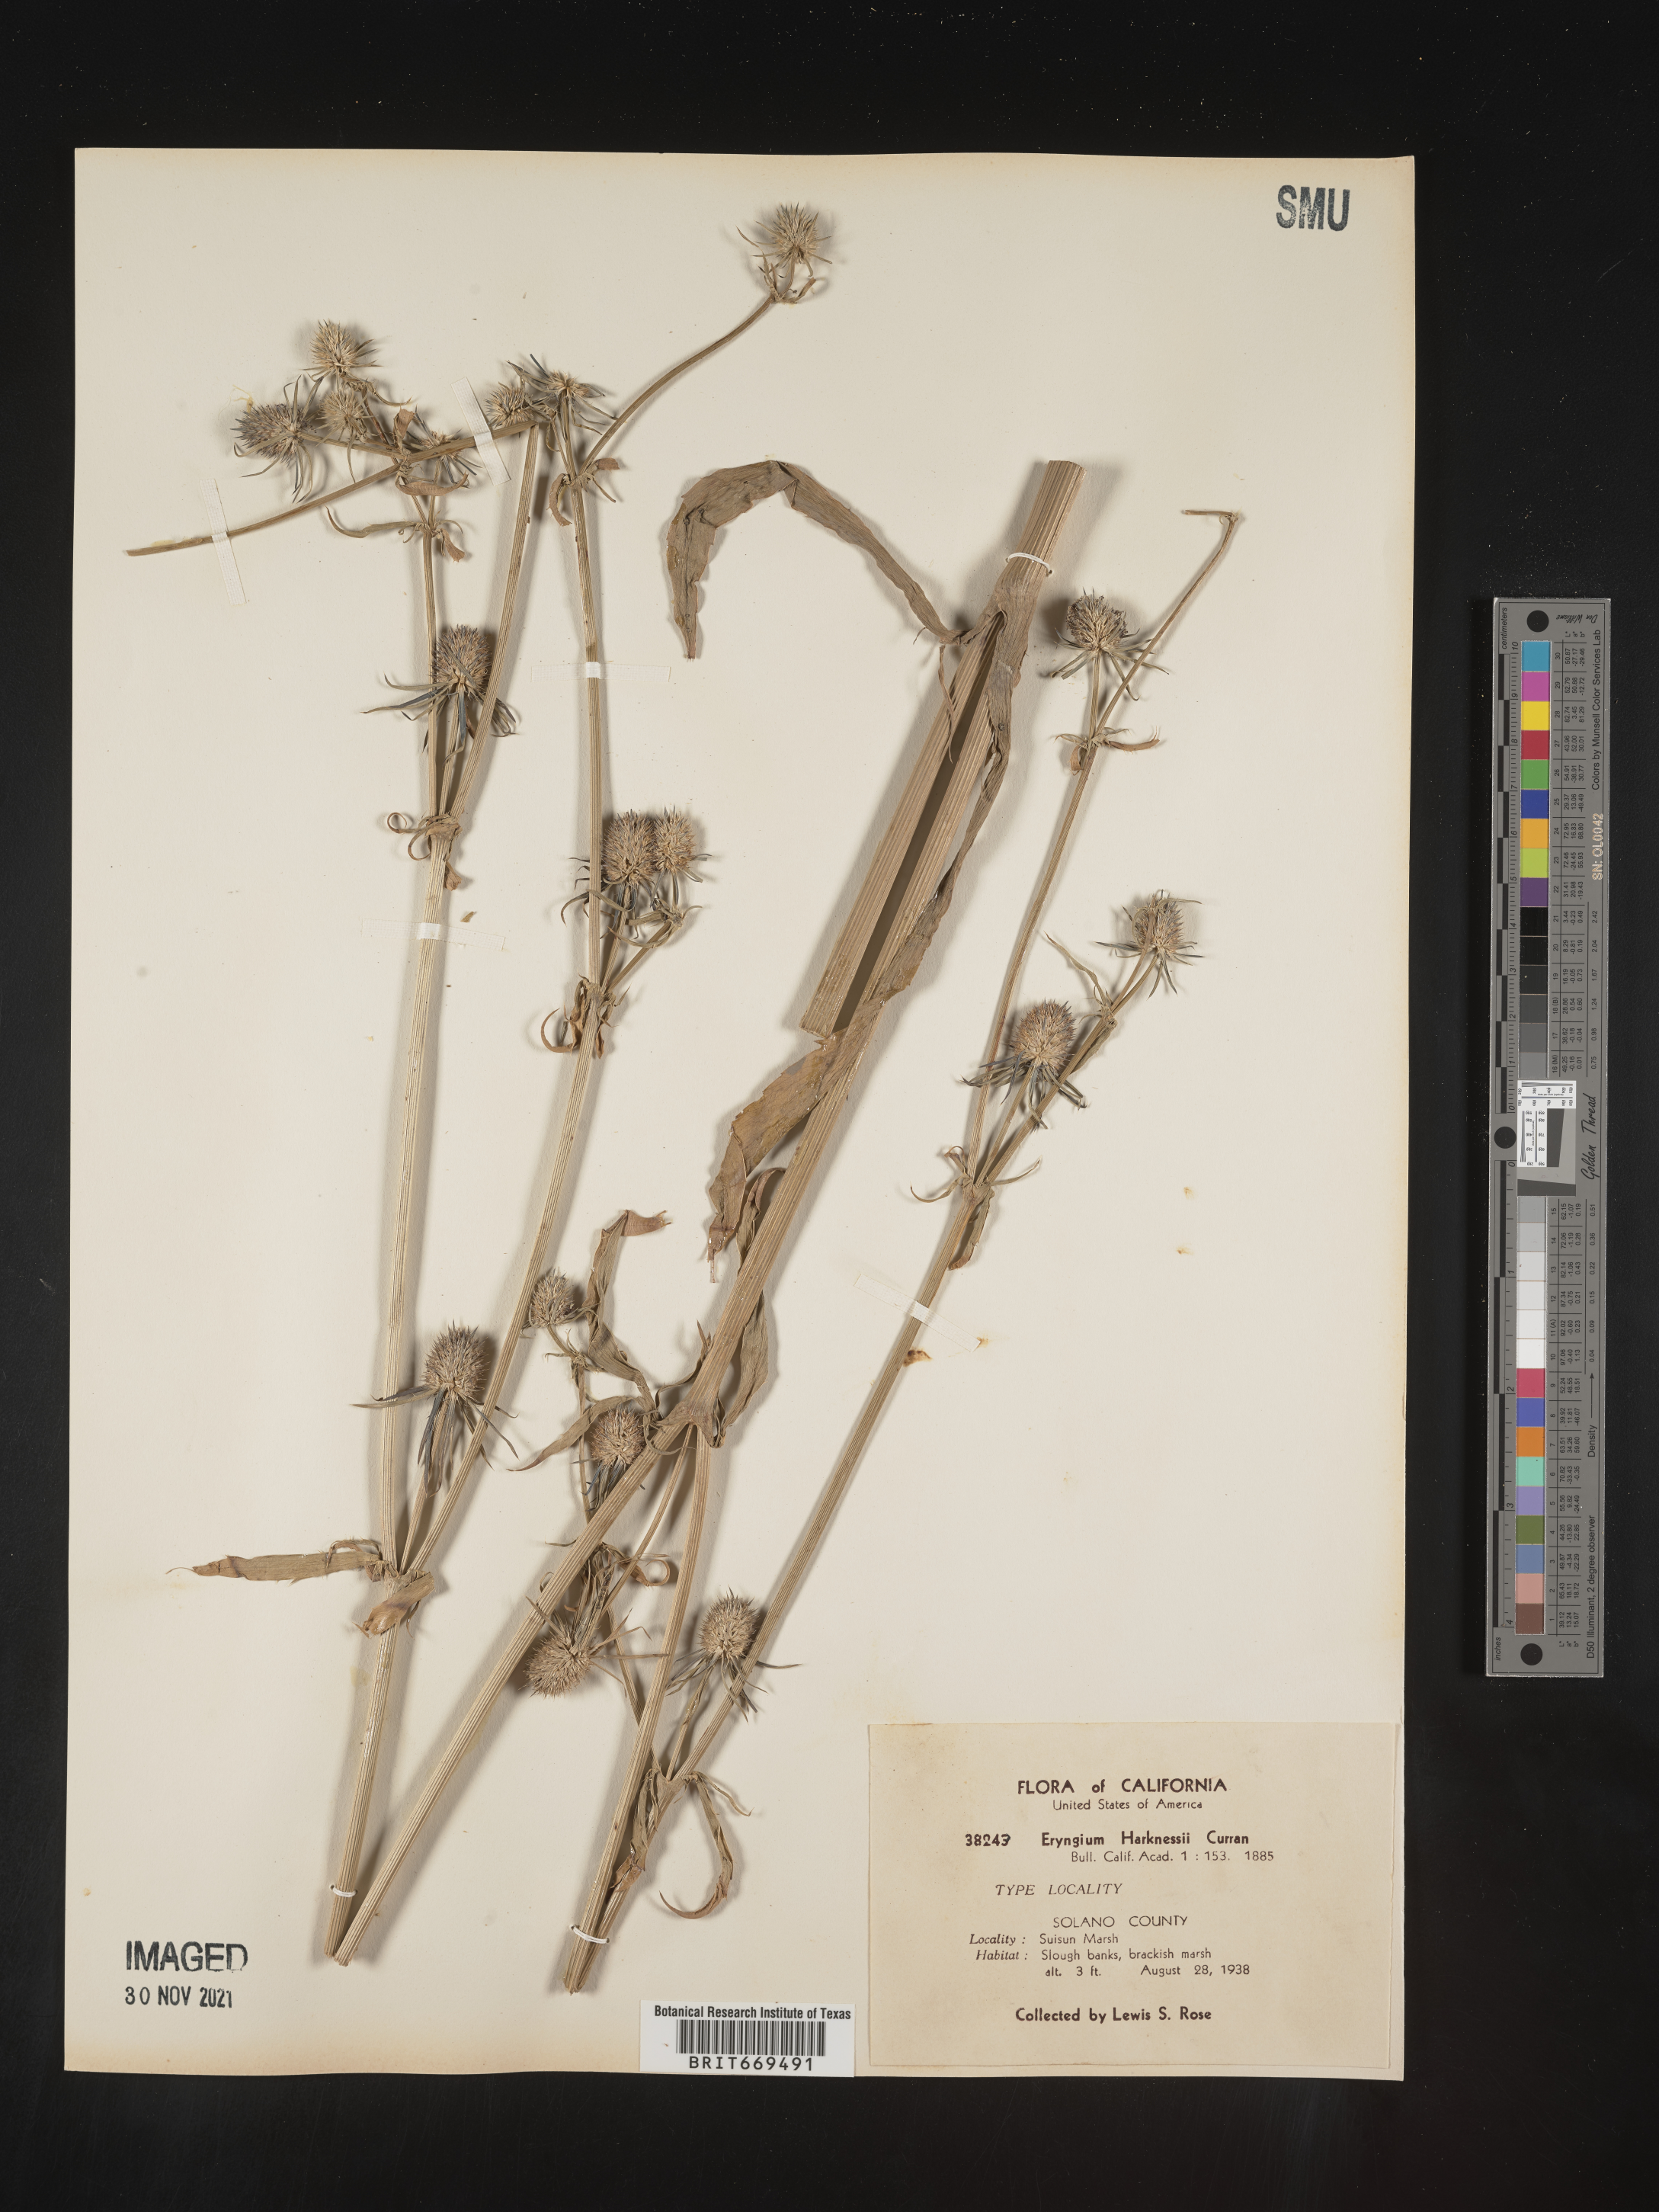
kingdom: Plantae
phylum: Tracheophyta
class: Magnoliopsida
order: Apiales
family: Apiaceae
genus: Eryngium
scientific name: Eryngium
